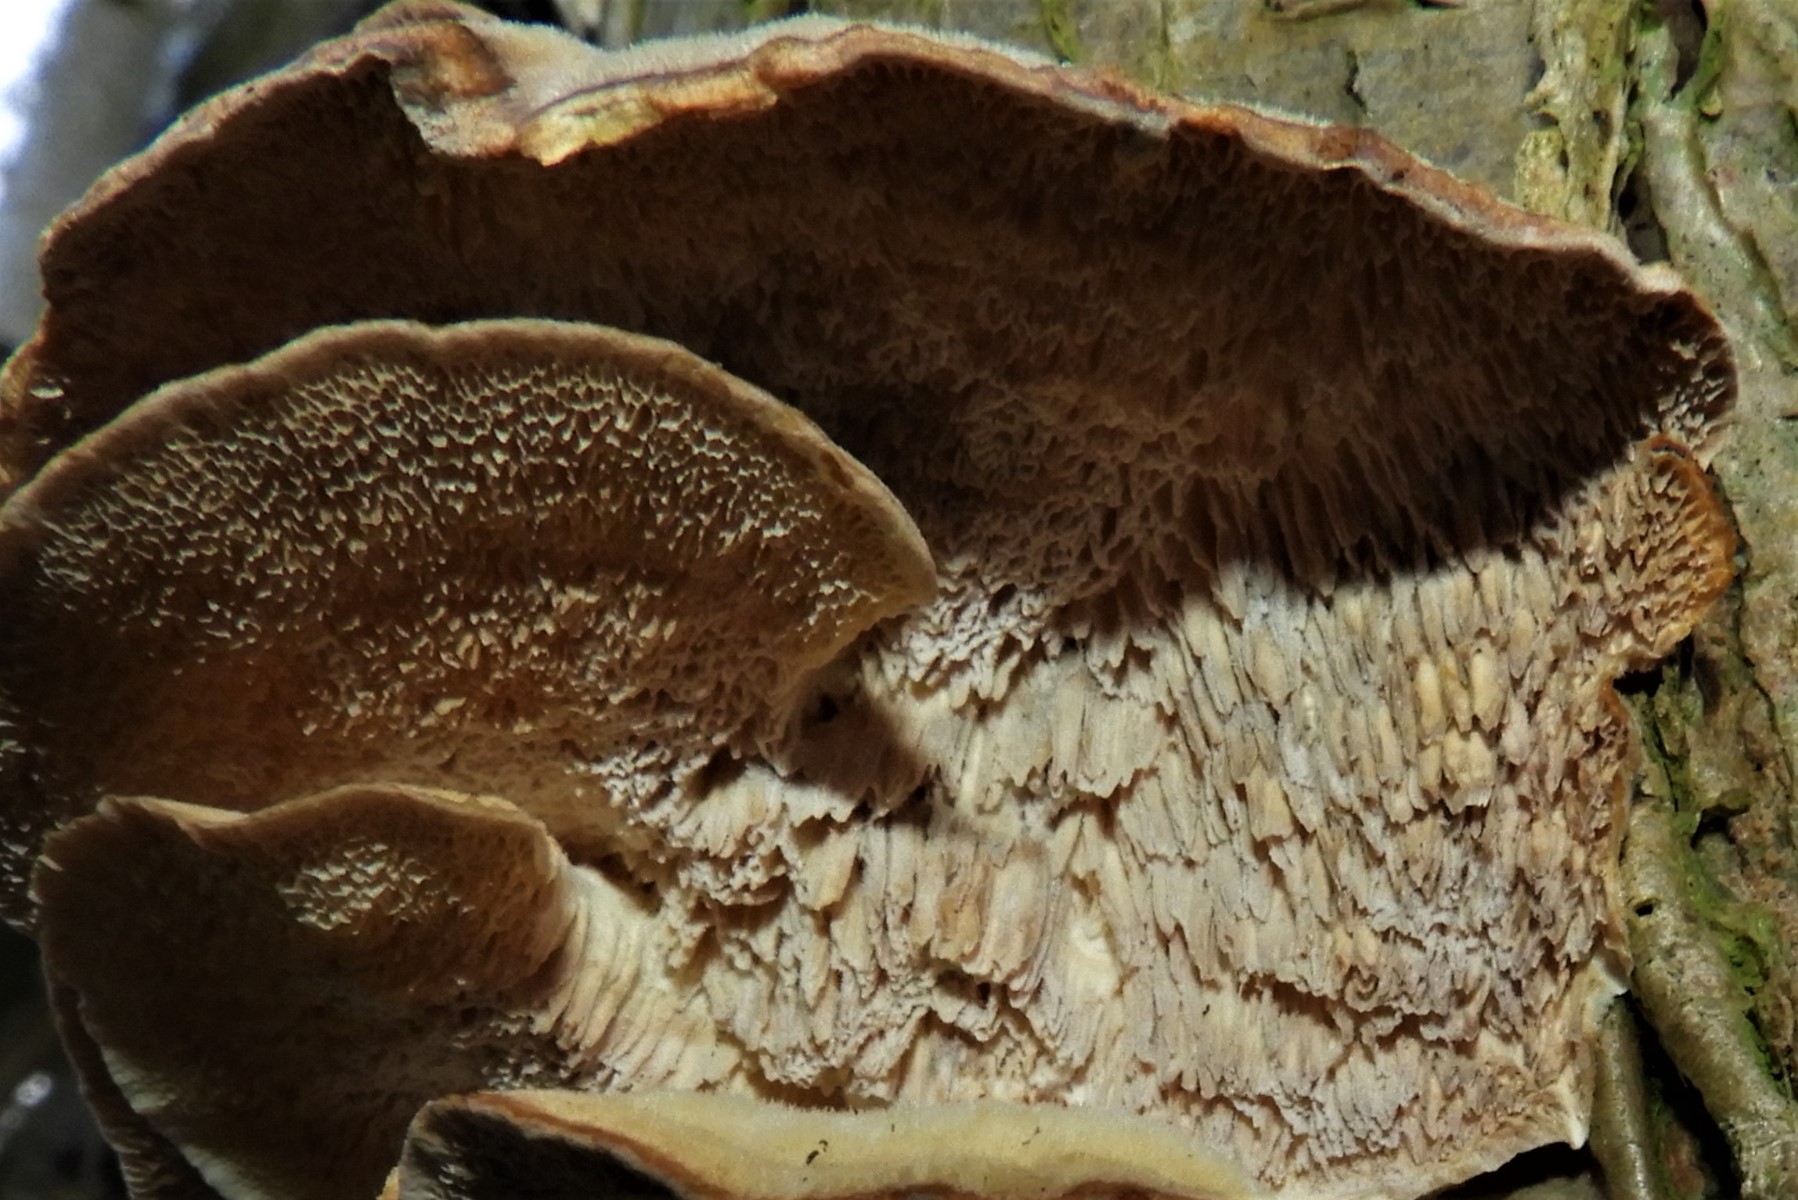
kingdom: Fungi
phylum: Basidiomycota
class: Agaricomycetes
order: Polyporales
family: Polyporaceae
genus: Trametes
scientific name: Trametes versicolor
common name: broget læderporesvamp
